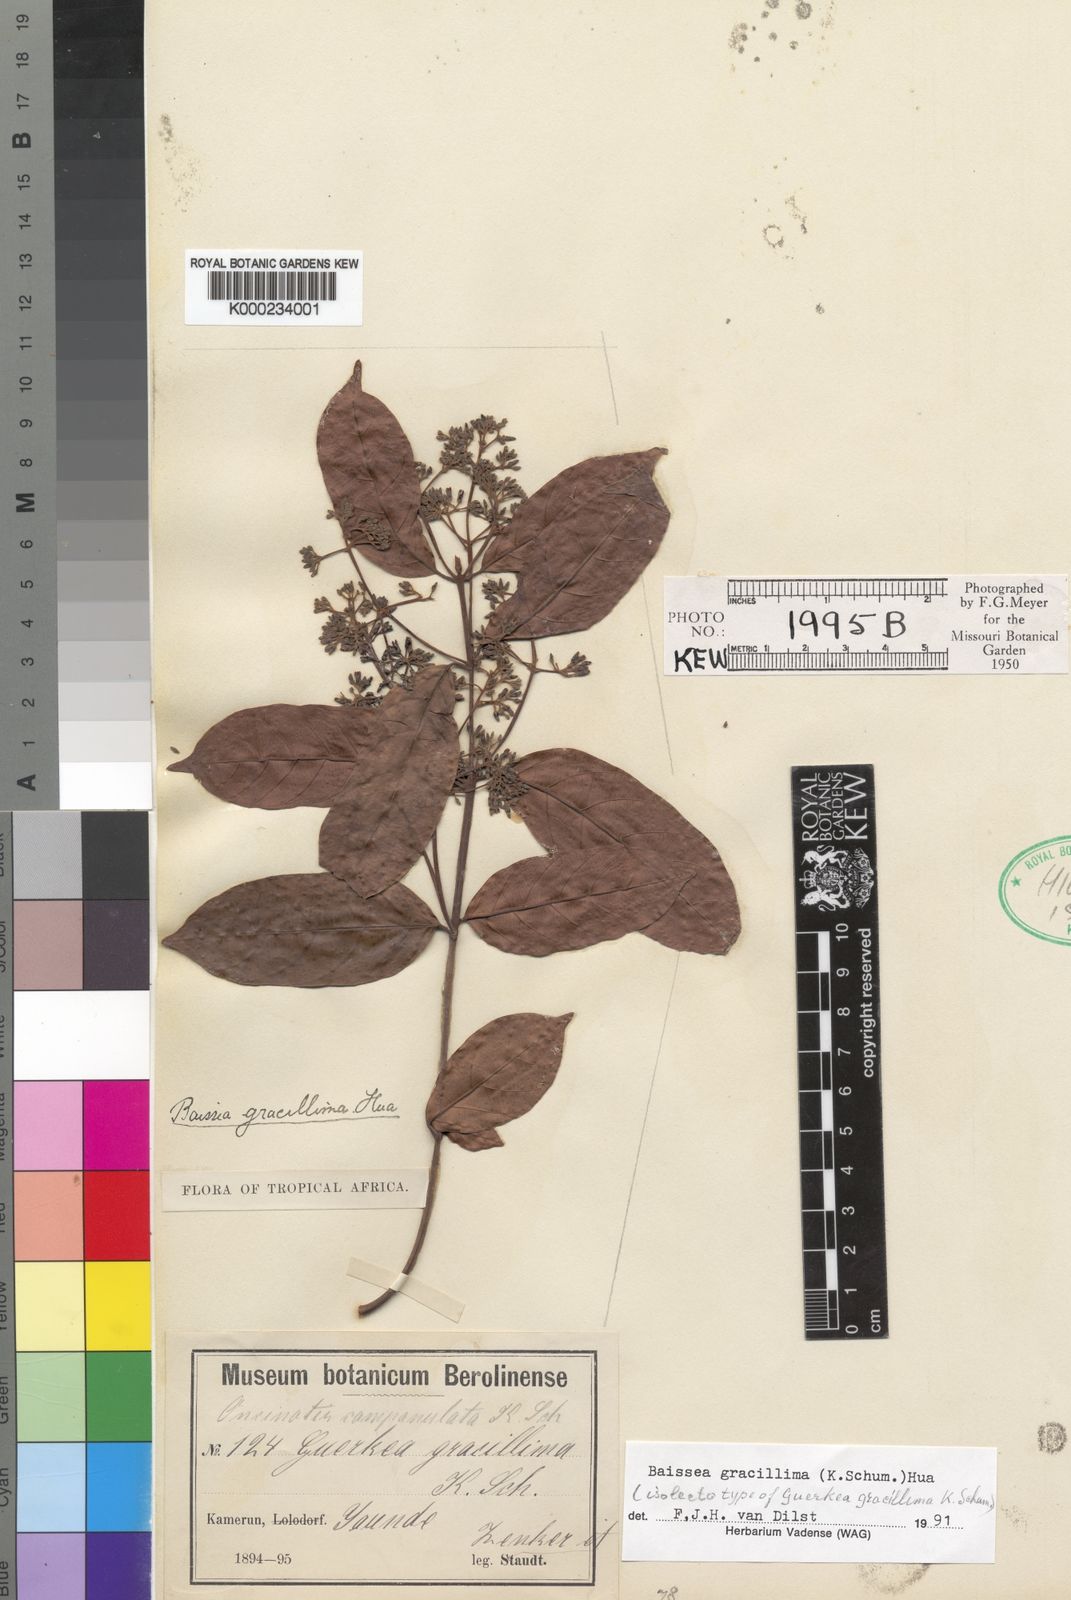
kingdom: Plantae
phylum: Tracheophyta
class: Magnoliopsida
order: Gentianales
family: Apocynaceae
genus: Baissea
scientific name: Baissea gracillima
